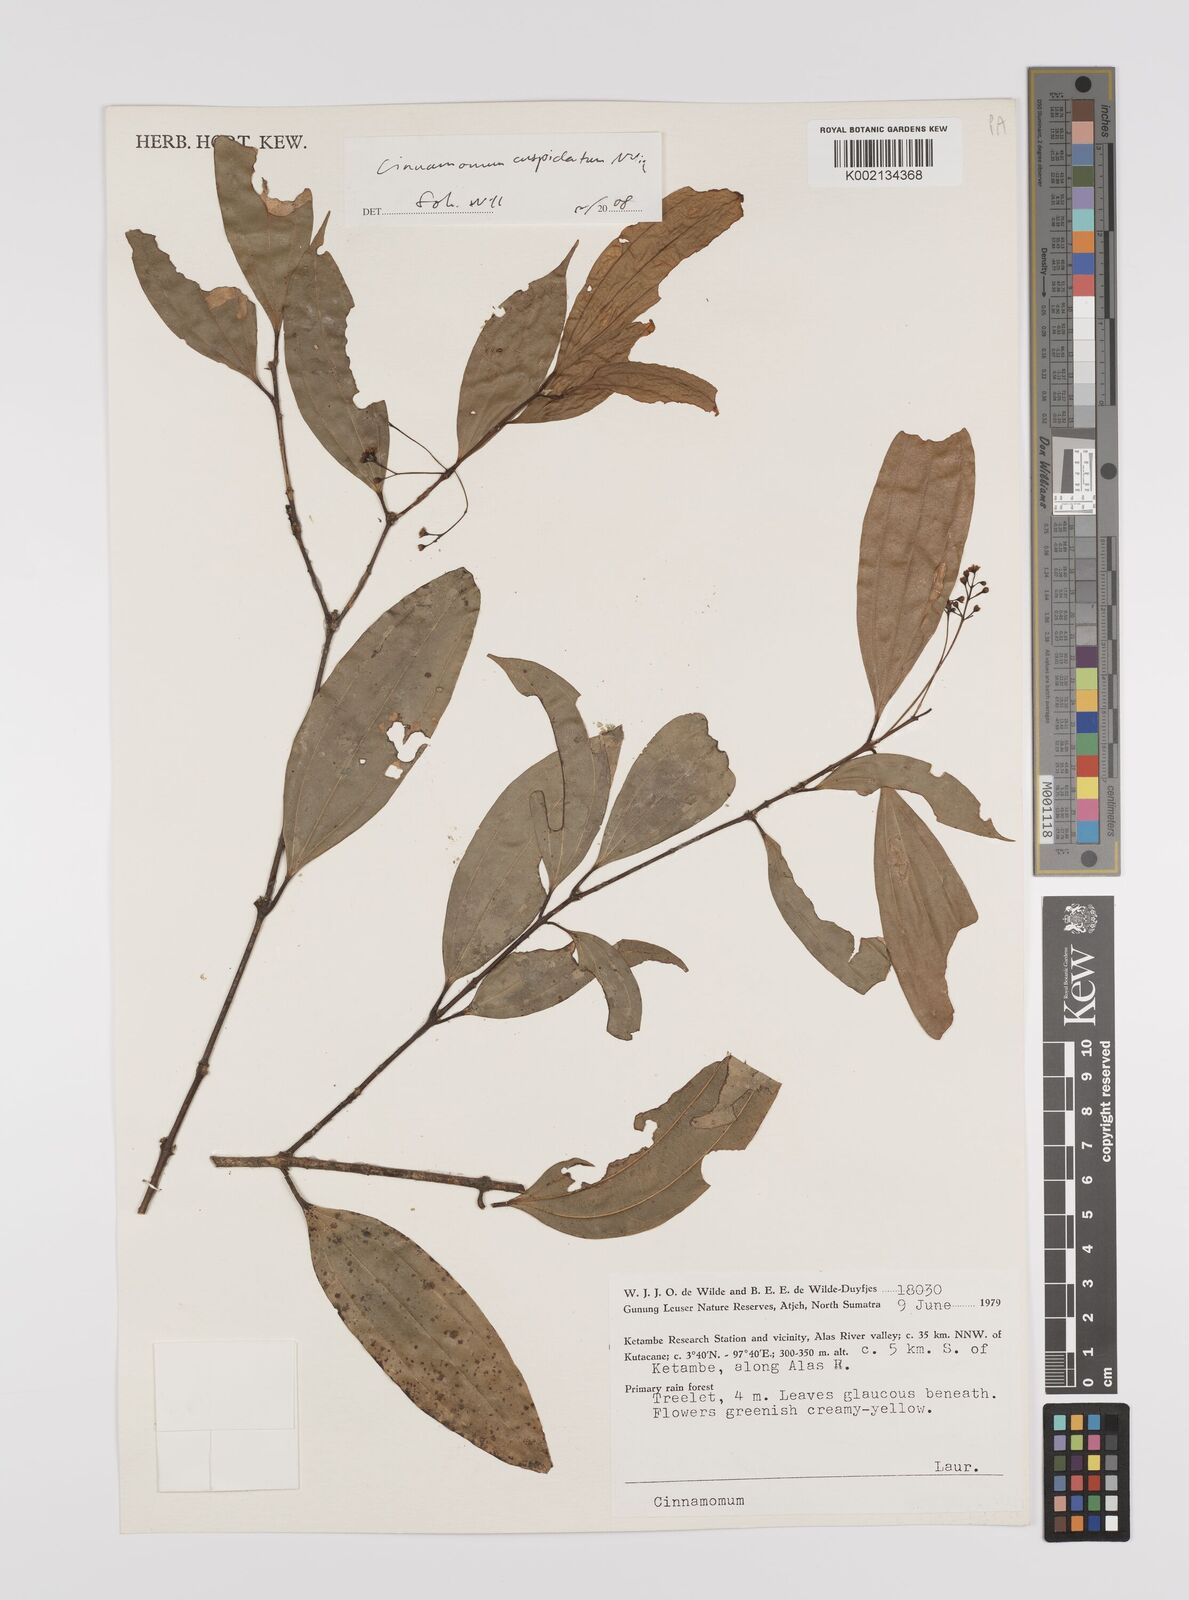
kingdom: Plantae
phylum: Tracheophyta
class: Magnoliopsida
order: Laurales
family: Lauraceae
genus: Cinnamomum
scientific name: Cinnamomum cuspidatum
